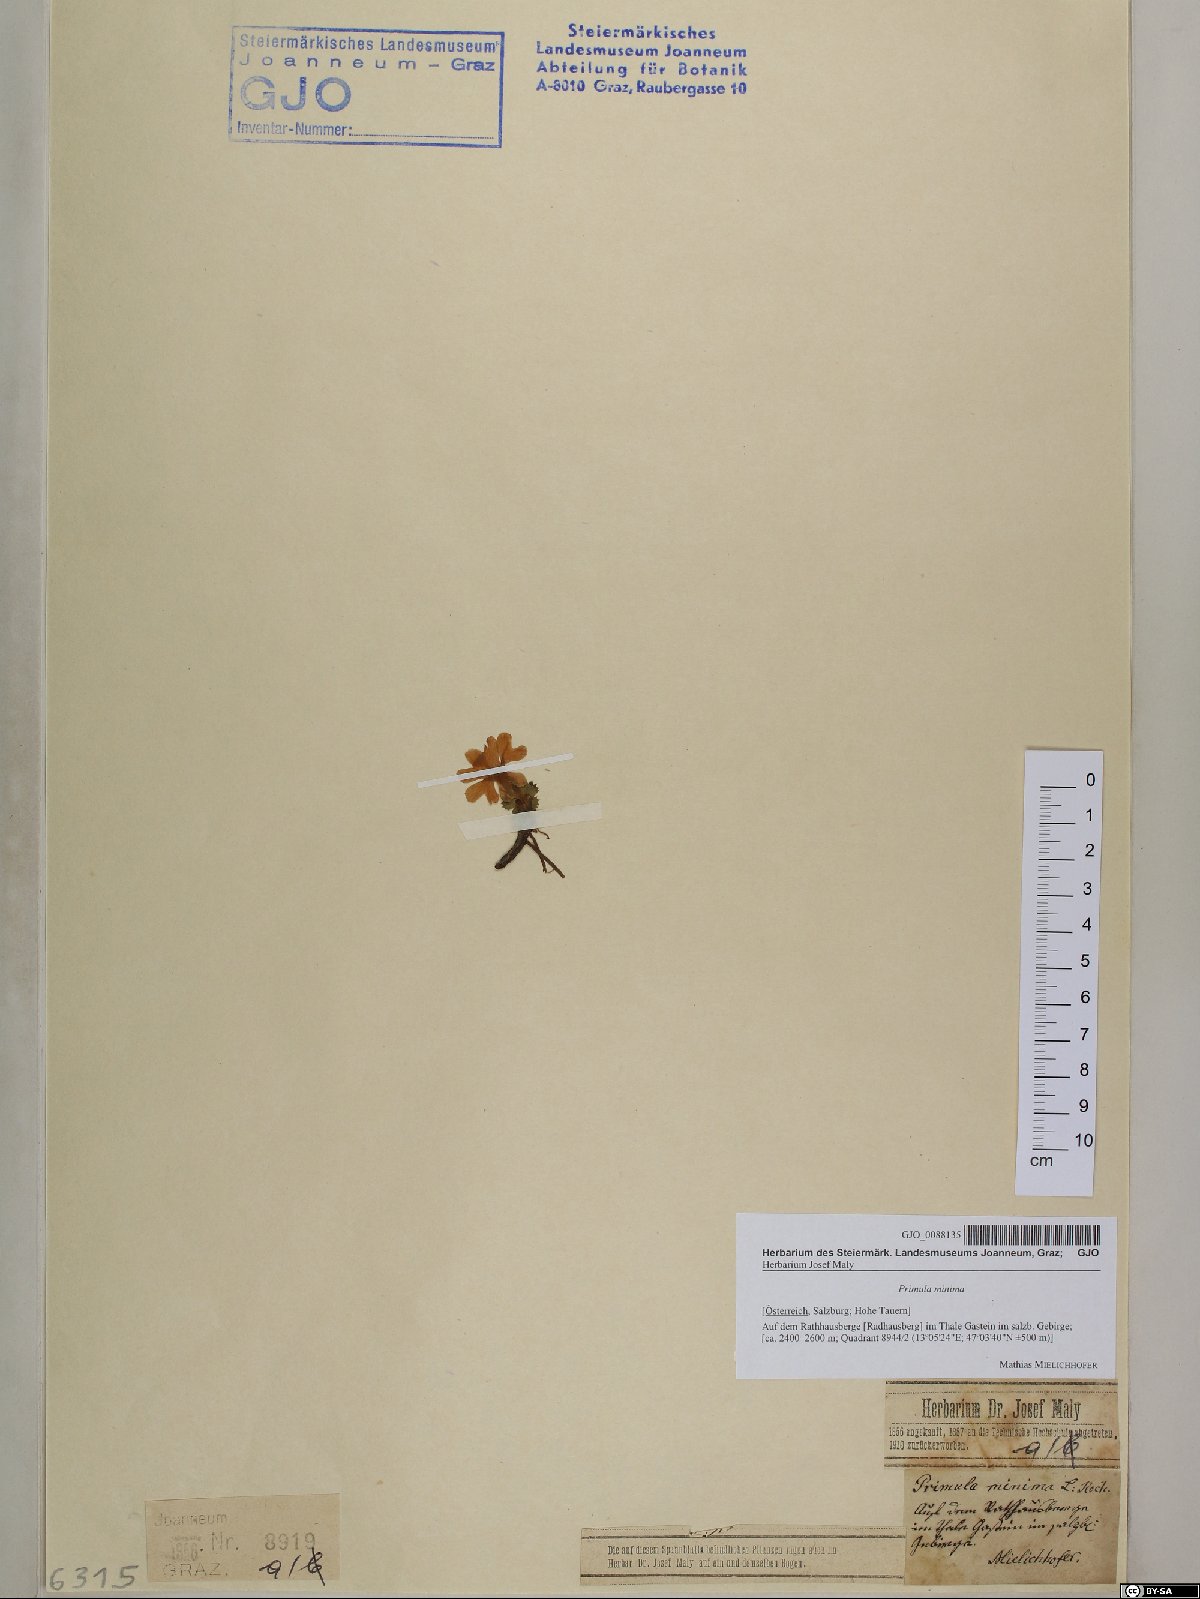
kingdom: Plantae
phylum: Tracheophyta
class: Magnoliopsida
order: Ericales
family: Primulaceae
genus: Primula
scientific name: Primula minima
